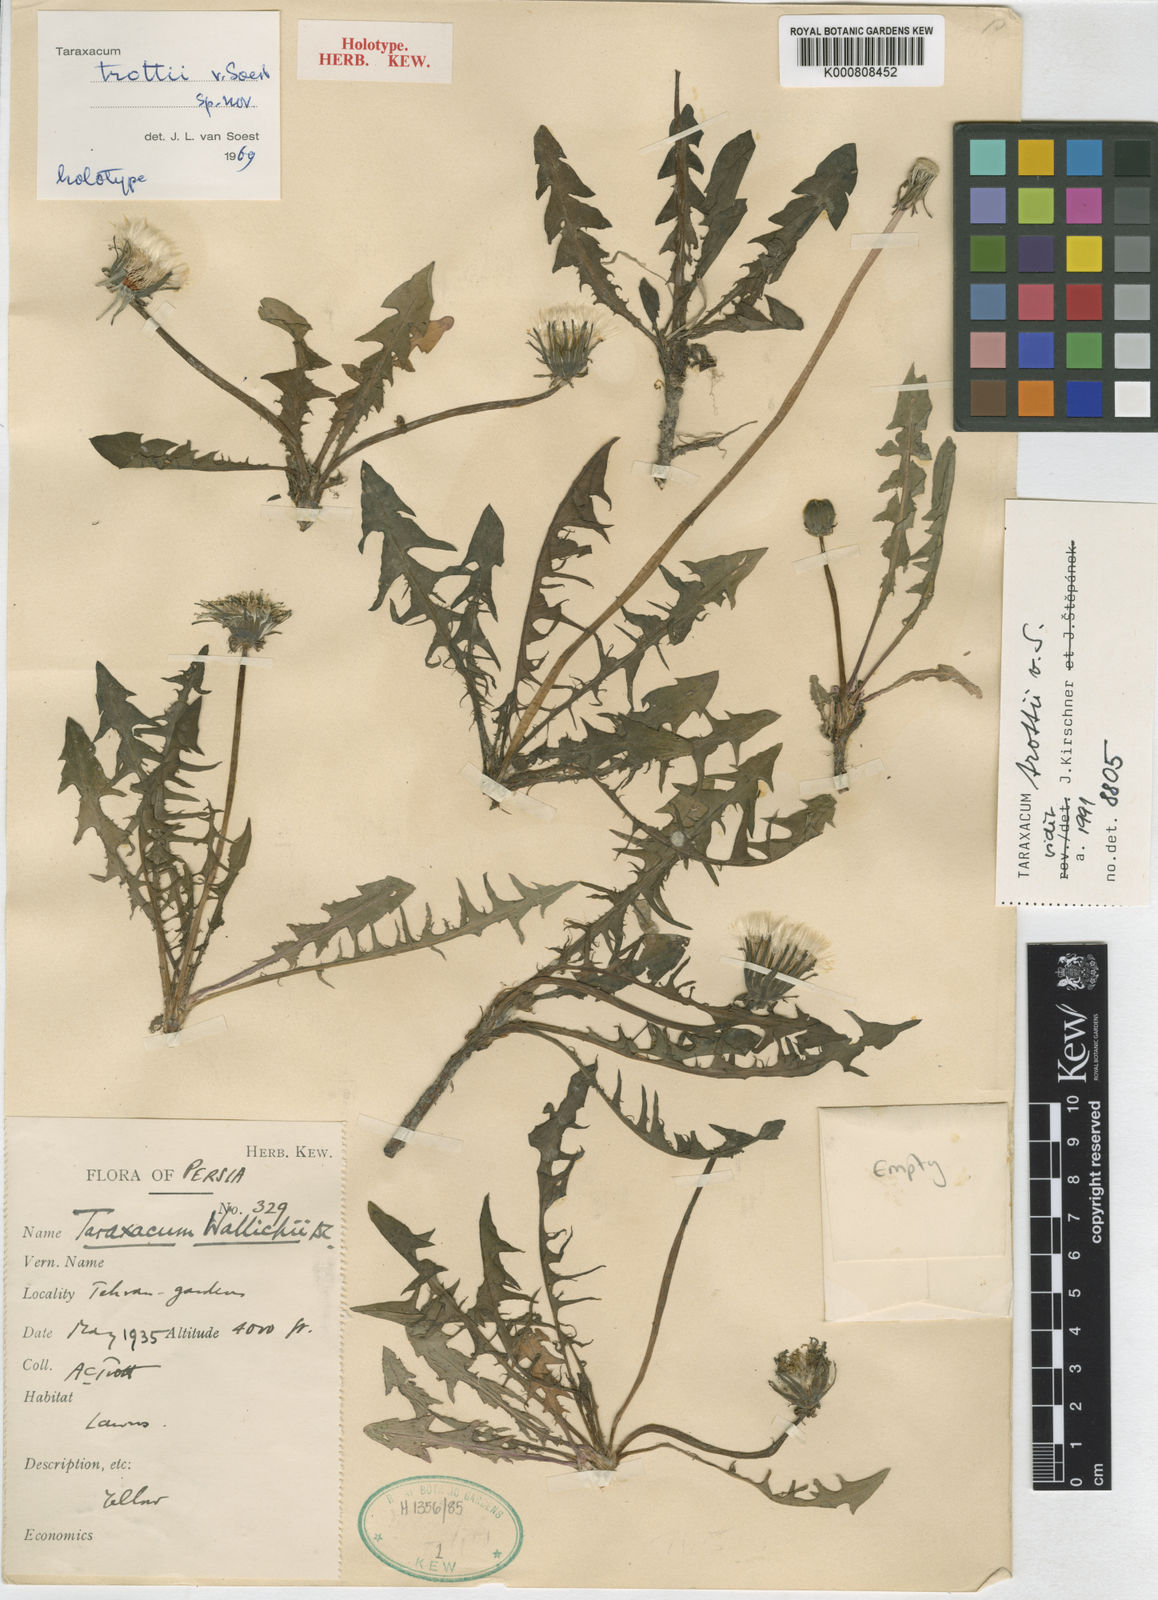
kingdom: Plantae
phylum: Tracheophyta
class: Magnoliopsida
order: Asterales
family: Asteraceae
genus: Taraxacum
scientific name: Taraxacum trottii
